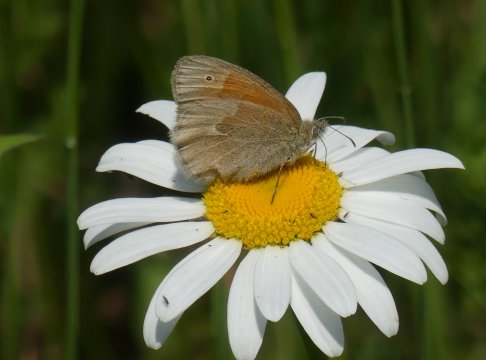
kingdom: Animalia
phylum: Arthropoda
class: Insecta
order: Lepidoptera
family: Nymphalidae
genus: Coenonympha
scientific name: Coenonympha california
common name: California Ringlet
